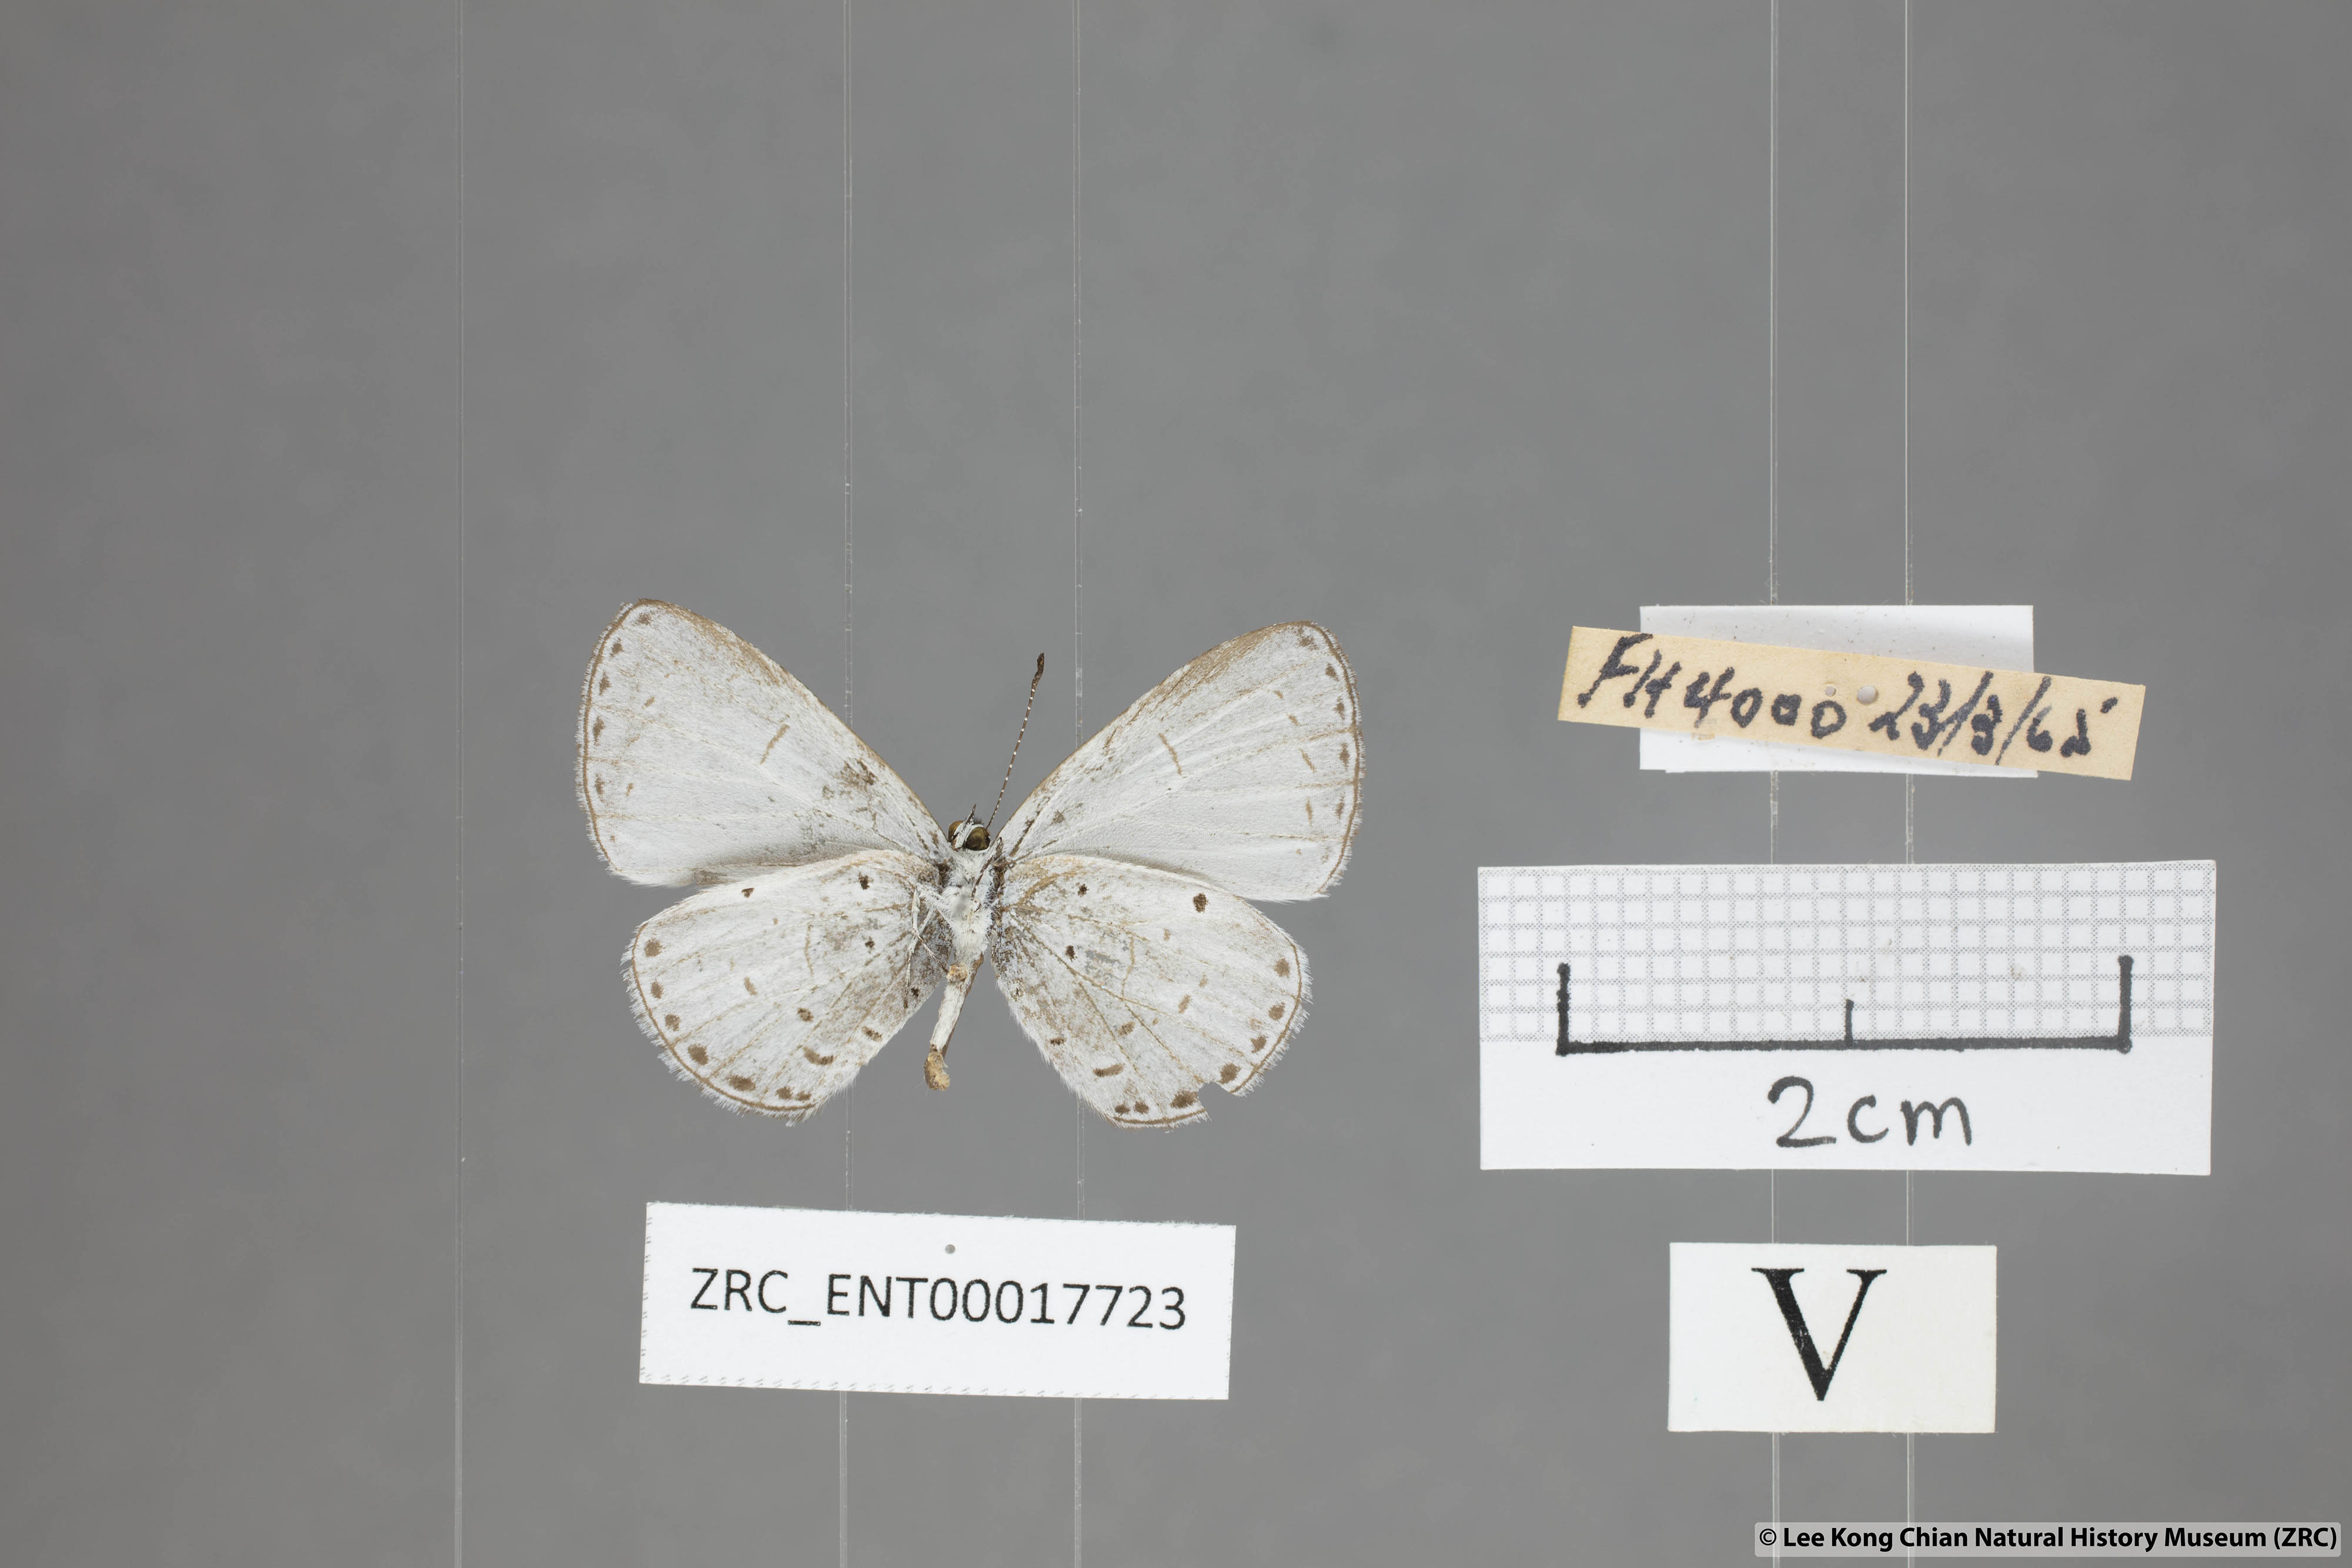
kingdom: Animalia
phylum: Arthropoda
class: Insecta
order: Lepidoptera
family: Lycaenidae
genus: Udara
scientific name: Udara
